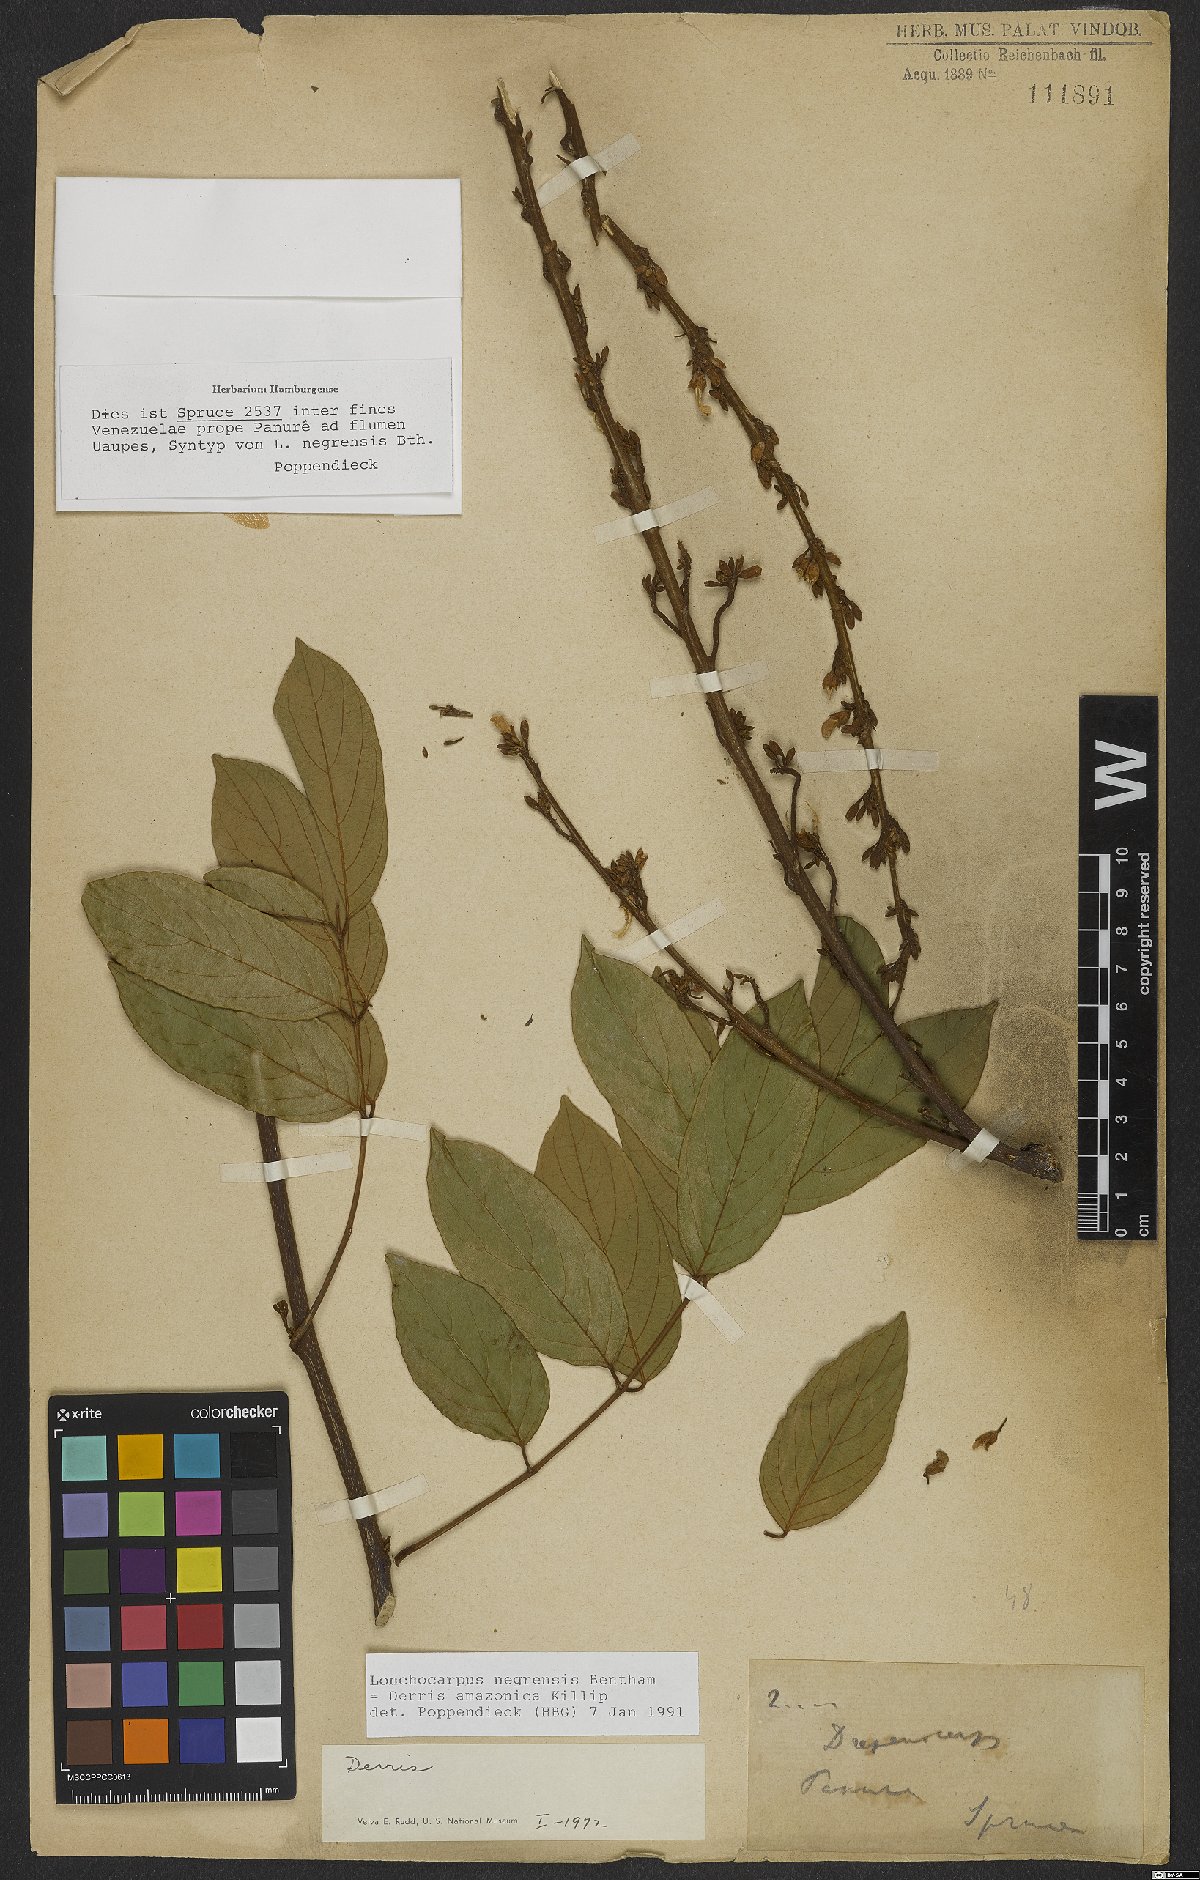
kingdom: Plantae
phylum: Tracheophyta
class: Magnoliopsida
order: Fabales
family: Fabaceae
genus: Deguelia
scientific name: Deguelia amazonica
